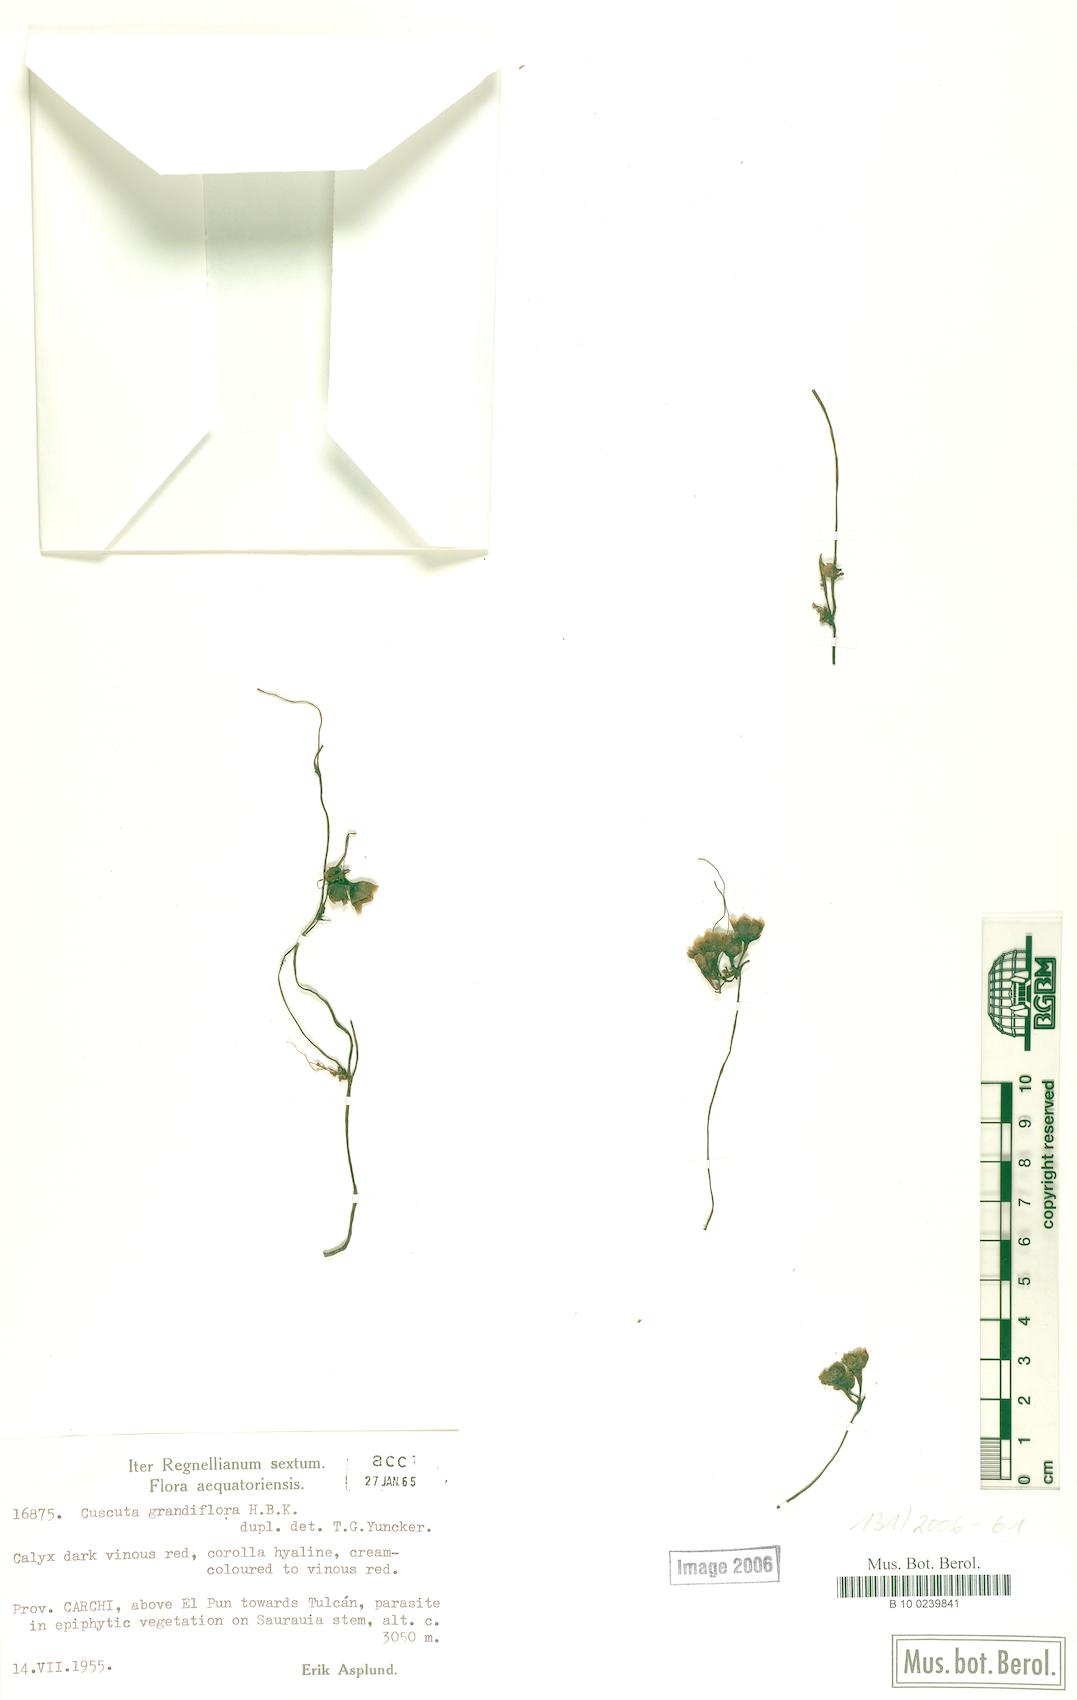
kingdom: Plantae
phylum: Tracheophyta
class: Magnoliopsida
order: Solanales
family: Convolvulaceae
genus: Cuscuta
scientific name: Cuscuta grandiflora
